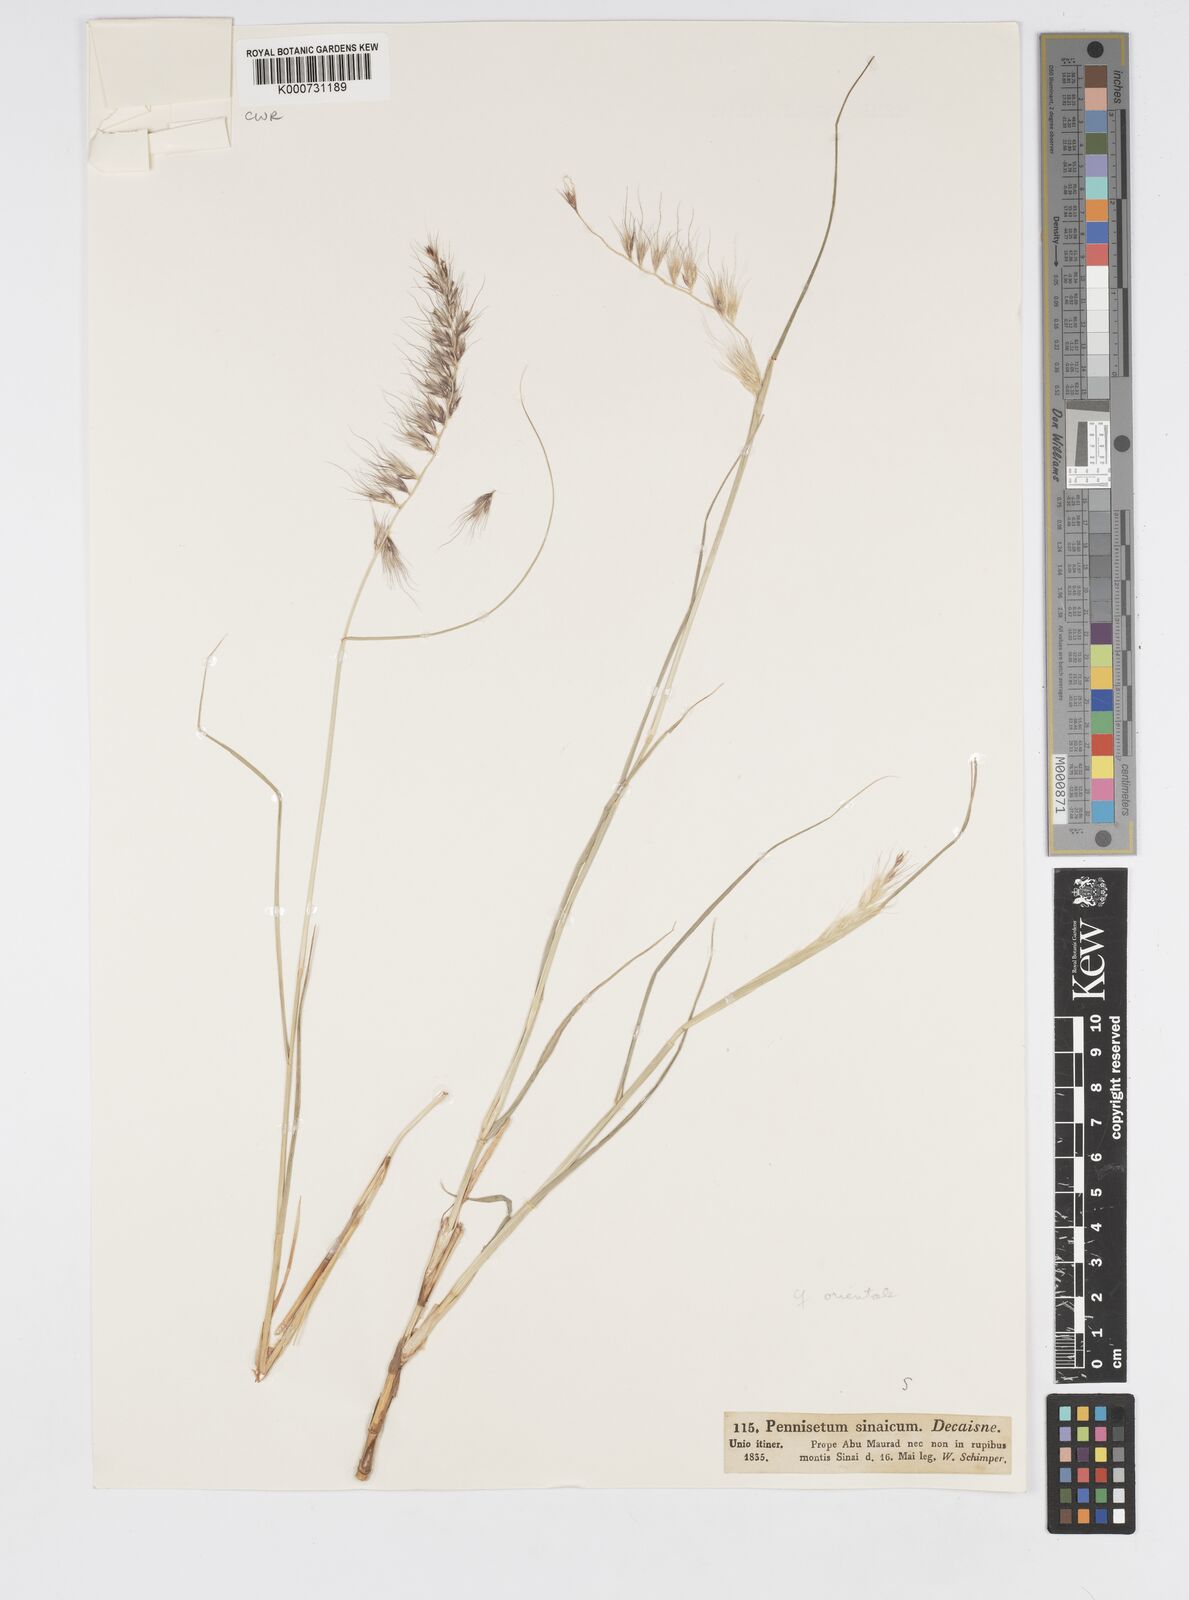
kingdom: Plantae
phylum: Tracheophyta
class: Liliopsida
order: Poales
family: Poaceae
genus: Cenchrus
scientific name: Cenchrus orientalis
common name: Oriental fountain grass
